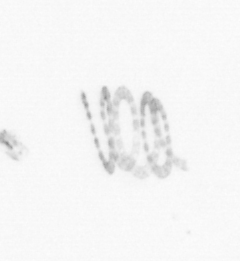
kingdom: Chromista
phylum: Ochrophyta
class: Bacillariophyceae
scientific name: Bacillariophyceae
